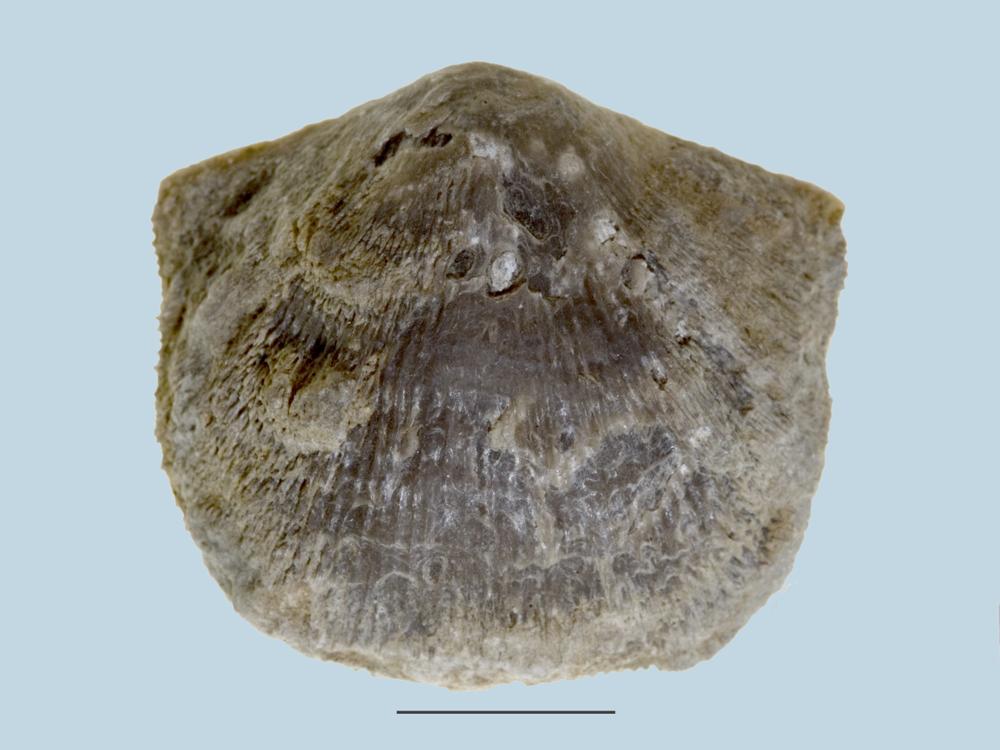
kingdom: Animalia
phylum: Brachiopoda
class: Rhynchonellata
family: Clitambonitidae
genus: Clitambonites
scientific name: Clitambonites squamatus
